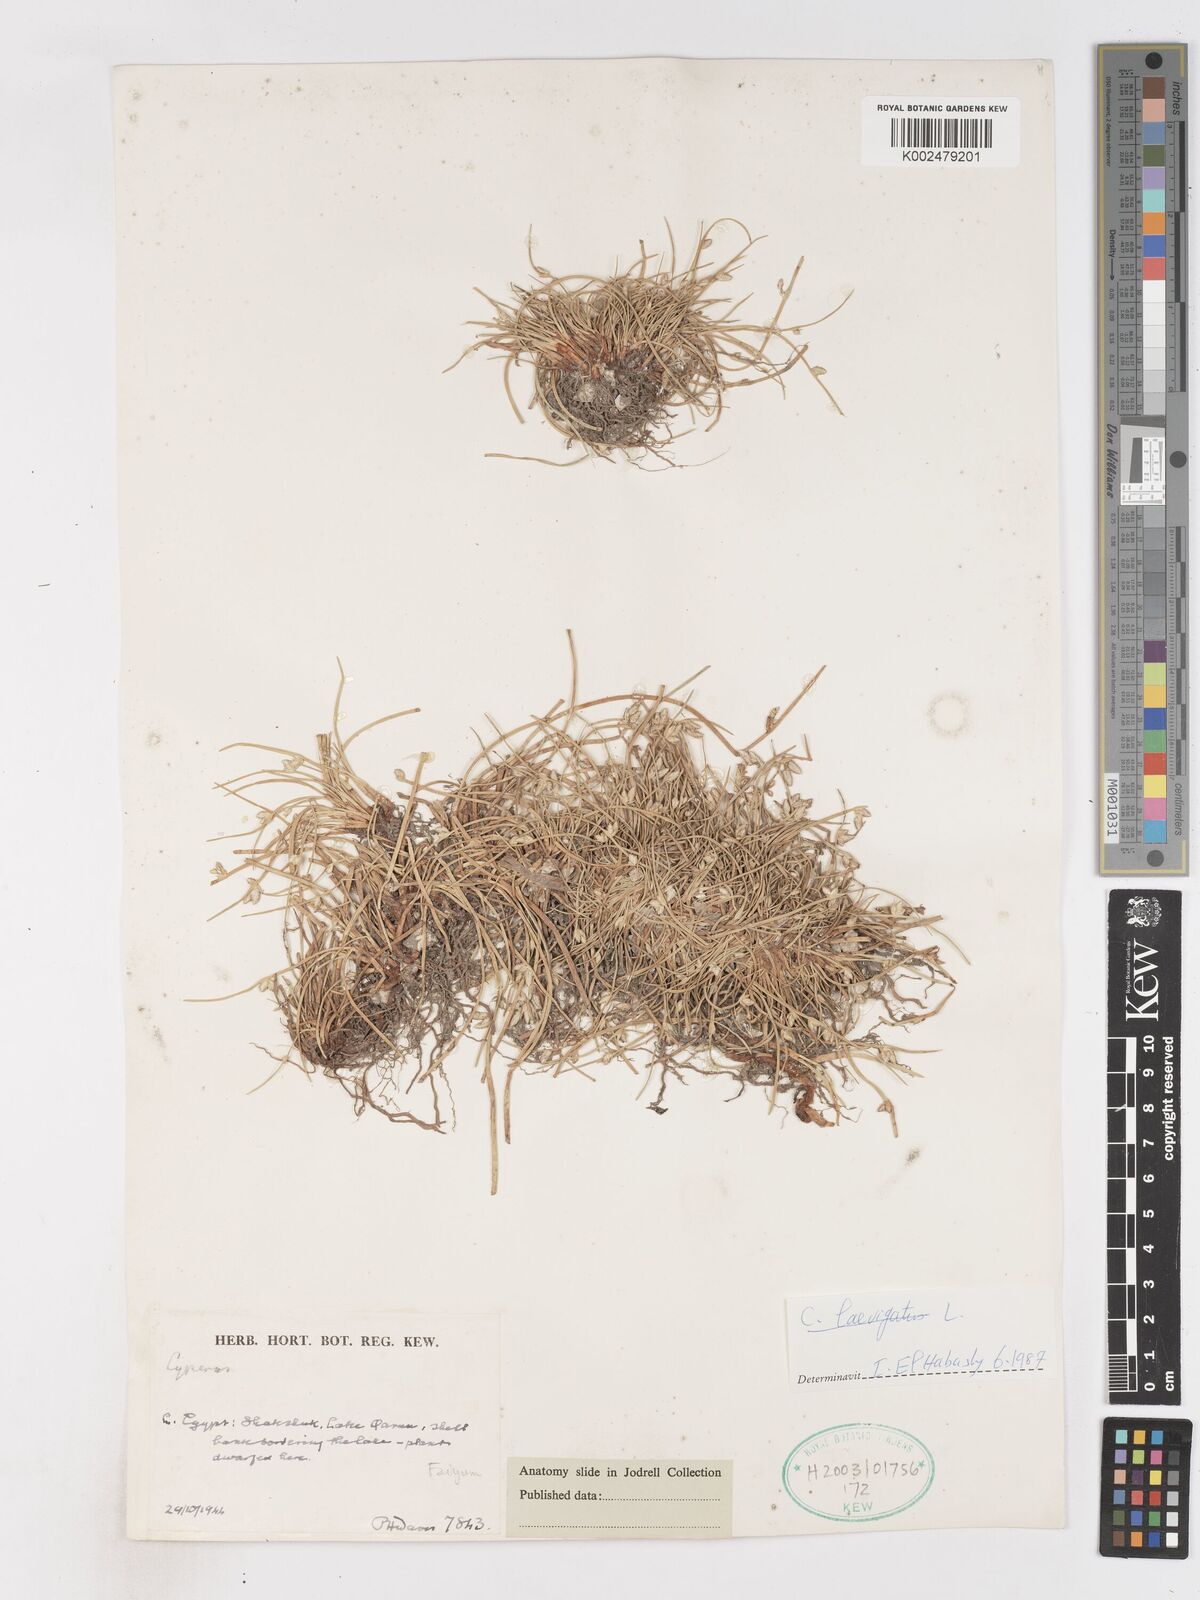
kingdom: Plantae
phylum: Tracheophyta
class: Liliopsida
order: Poales
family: Cyperaceae
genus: Cyperus
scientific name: Cyperus laevigatus
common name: Smooth flat sedge
